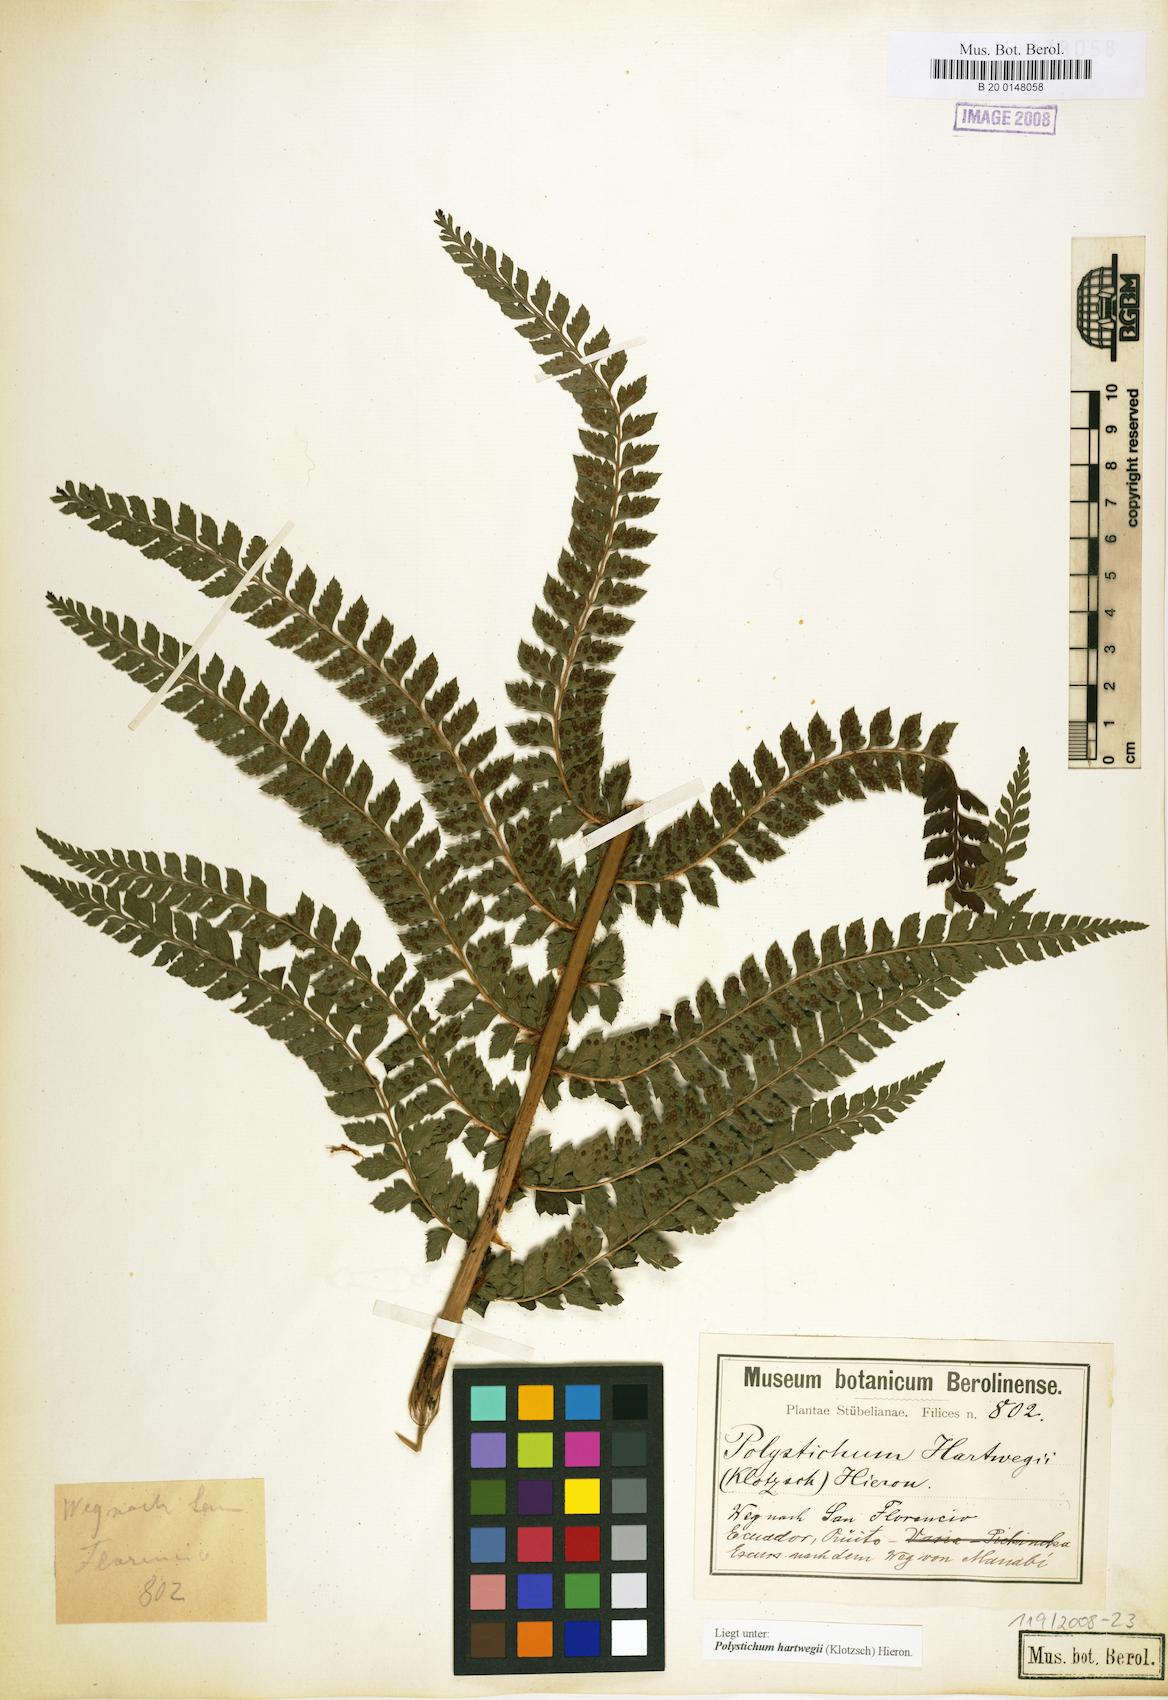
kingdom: Plantae
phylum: Tracheophyta
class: Polypodiopsida
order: Polypodiales
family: Dryopteridaceae
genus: Polystichum
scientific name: Polystichum hartwegii
